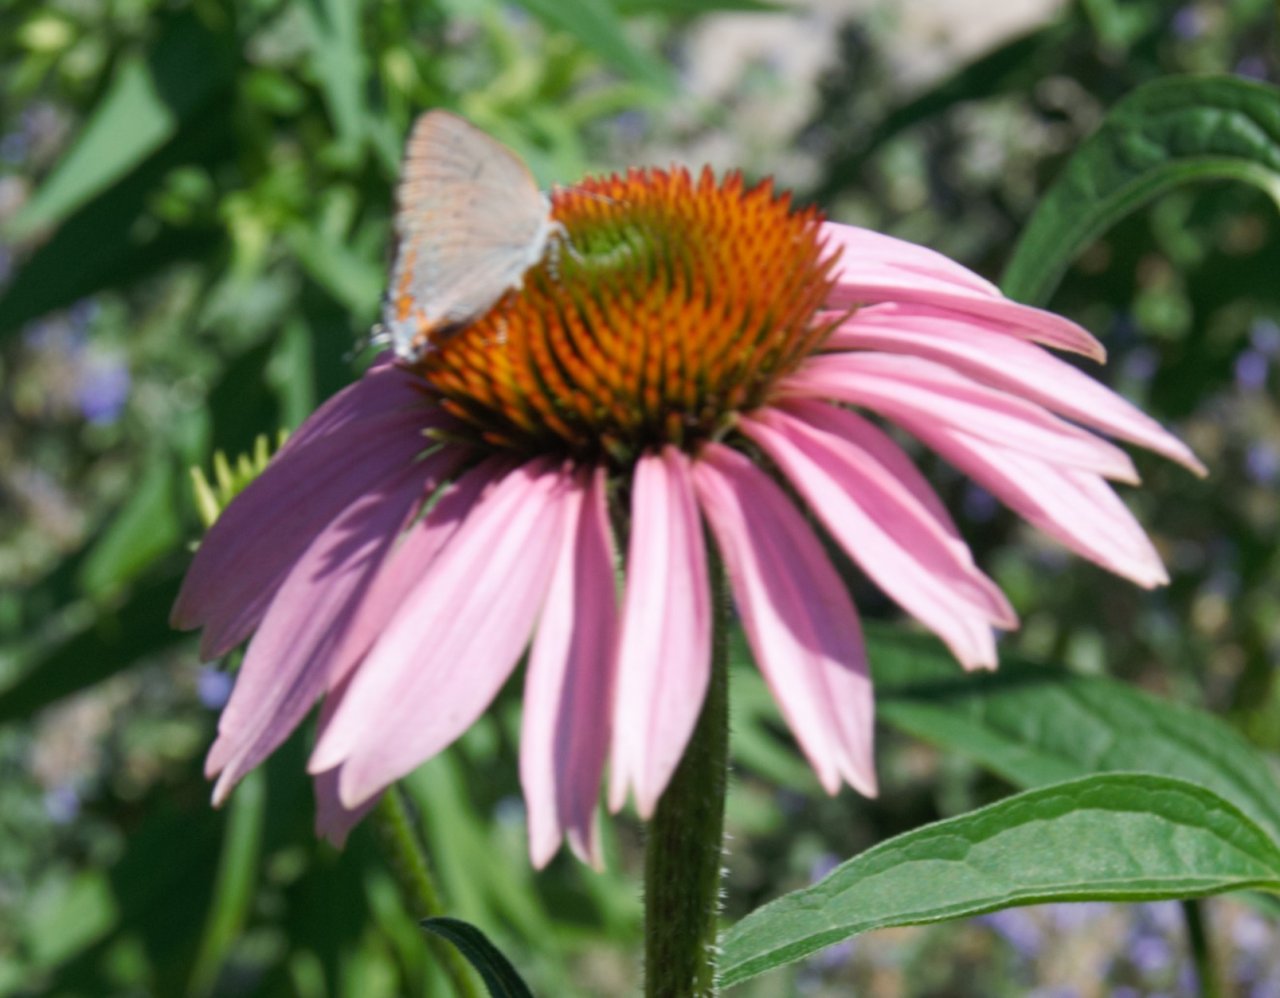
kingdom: Animalia
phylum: Arthropoda
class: Insecta
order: Lepidoptera
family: Lycaenidae
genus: Harkenclenus
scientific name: Harkenclenus titus
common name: Coral Hairstreak
